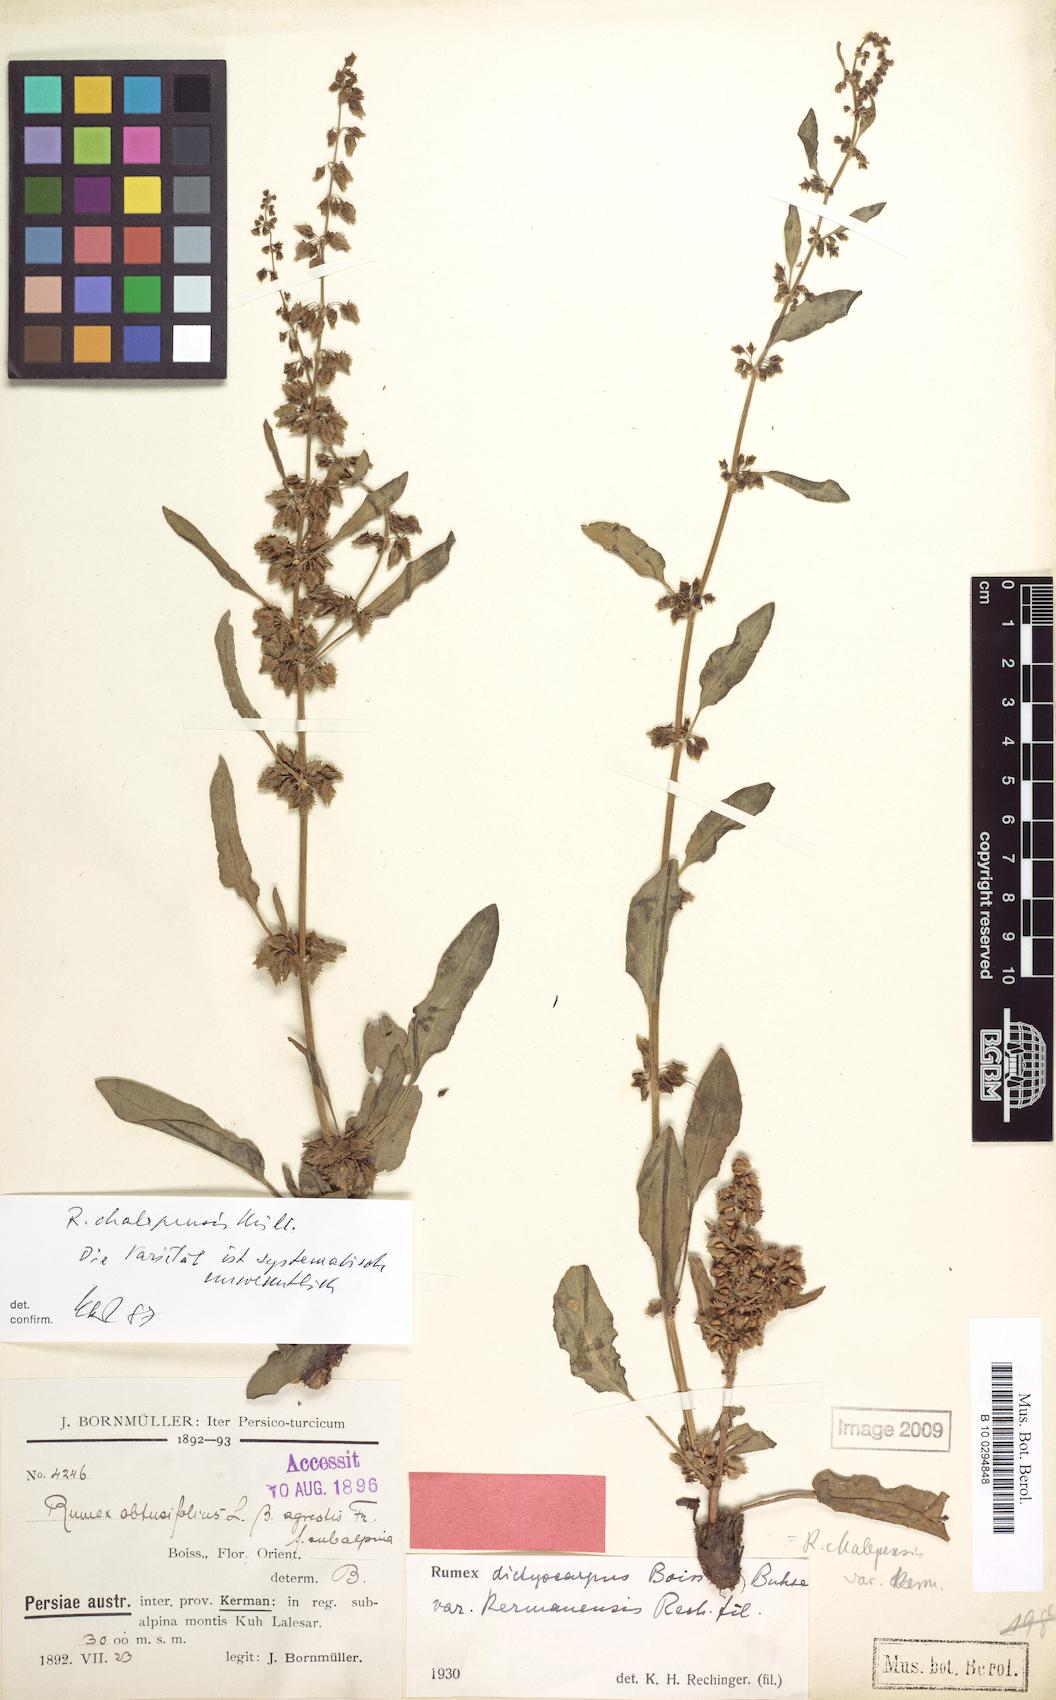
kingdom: Plantae
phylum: Tracheophyta
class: Magnoliopsida
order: Caryophyllales
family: Polygonaceae
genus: Rumex
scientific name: Rumex chalepensis
